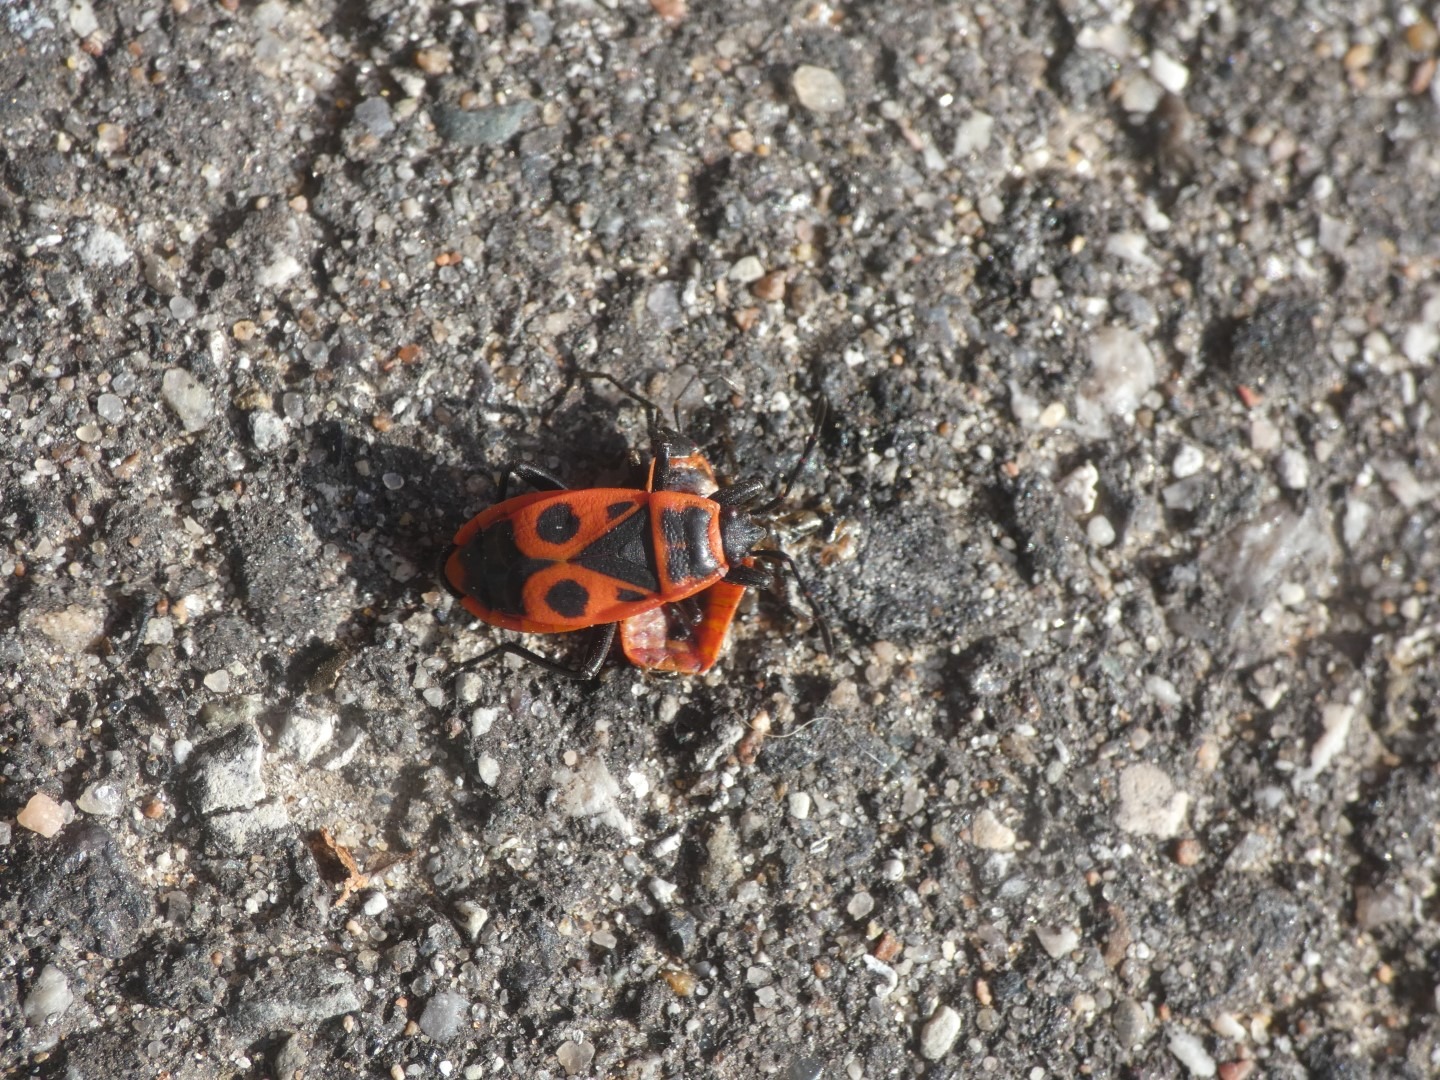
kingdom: Animalia
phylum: Arthropoda
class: Insecta
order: Hemiptera
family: Pyrrhocoridae
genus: Pyrrhocoris
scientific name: Pyrrhocoris apterus
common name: Ildtæge
